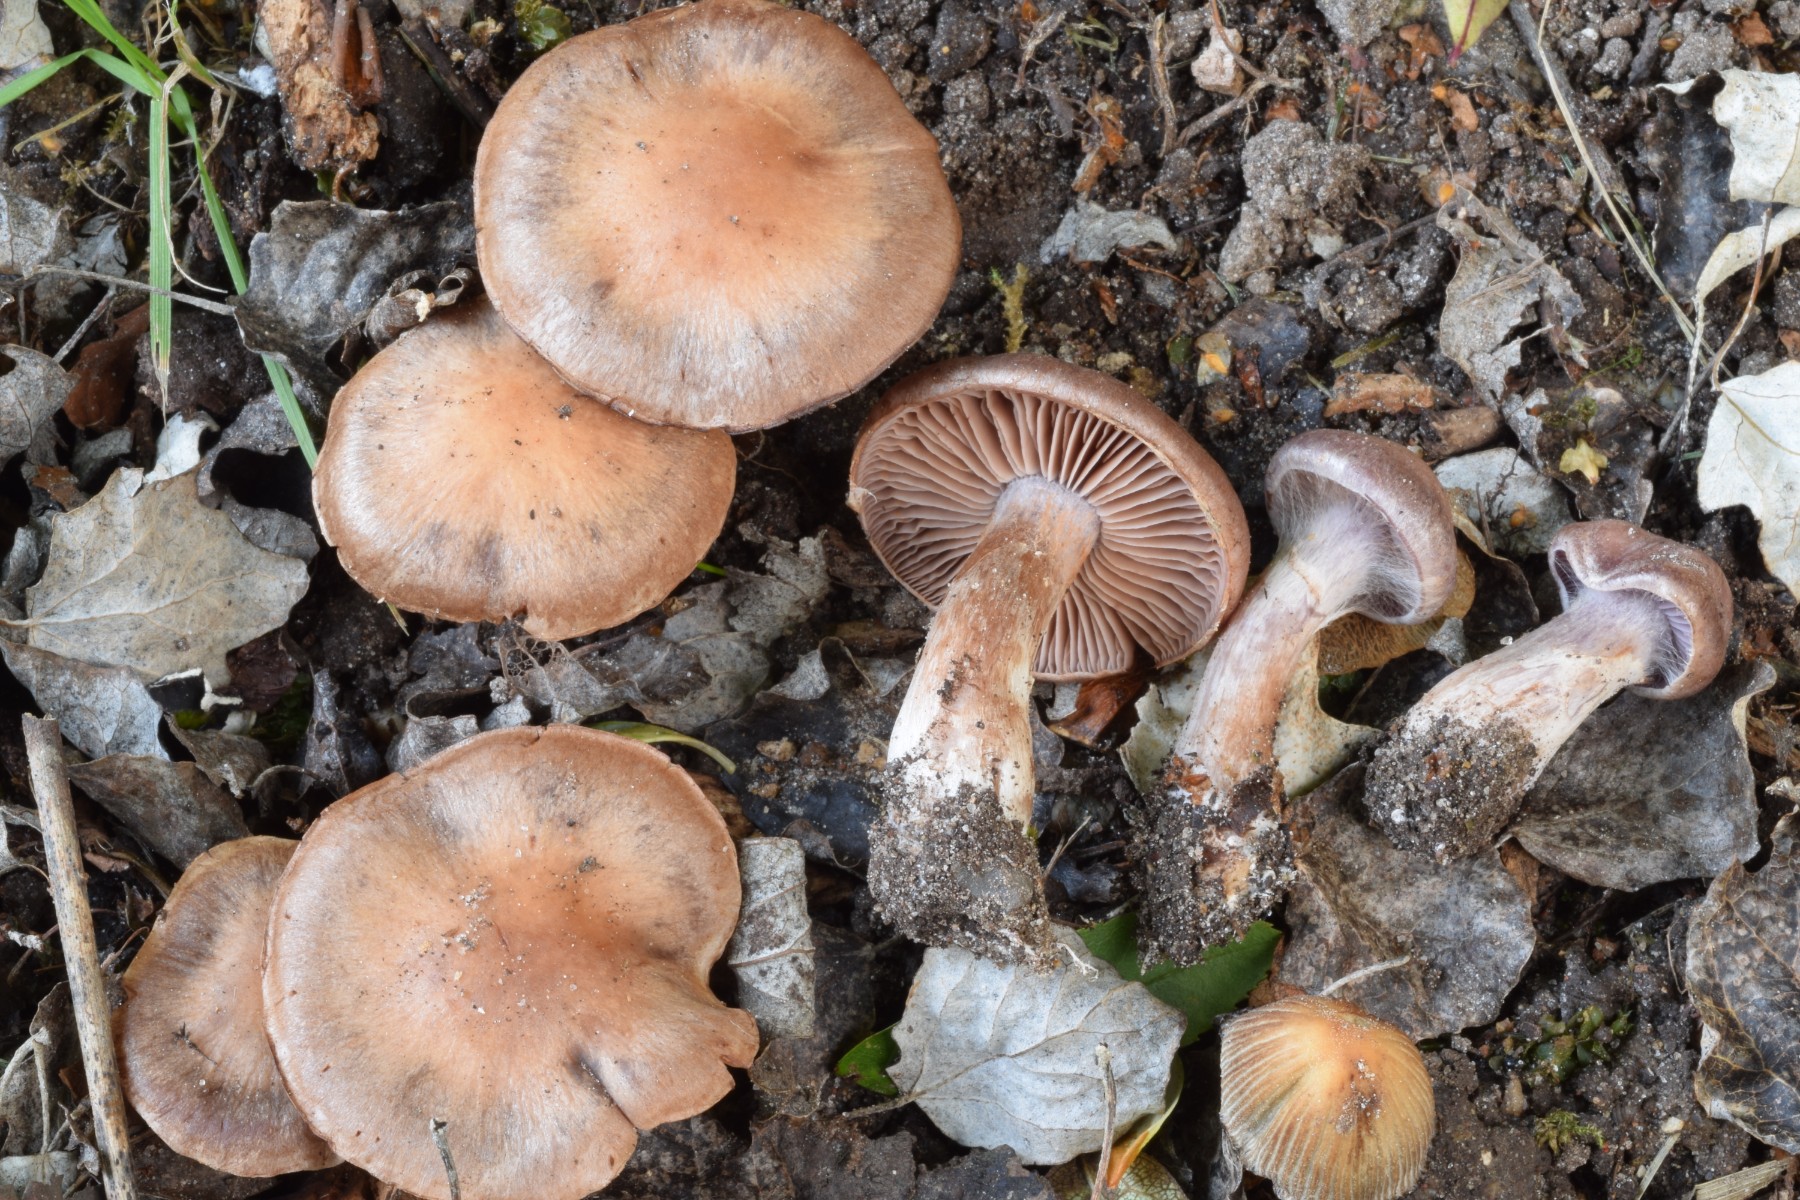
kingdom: Fungi
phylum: Basidiomycota
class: Agaricomycetes
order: Agaricales
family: Cortinariaceae
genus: Cortinarius
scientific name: Cortinarius saturninus
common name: brunviolet slørhat
